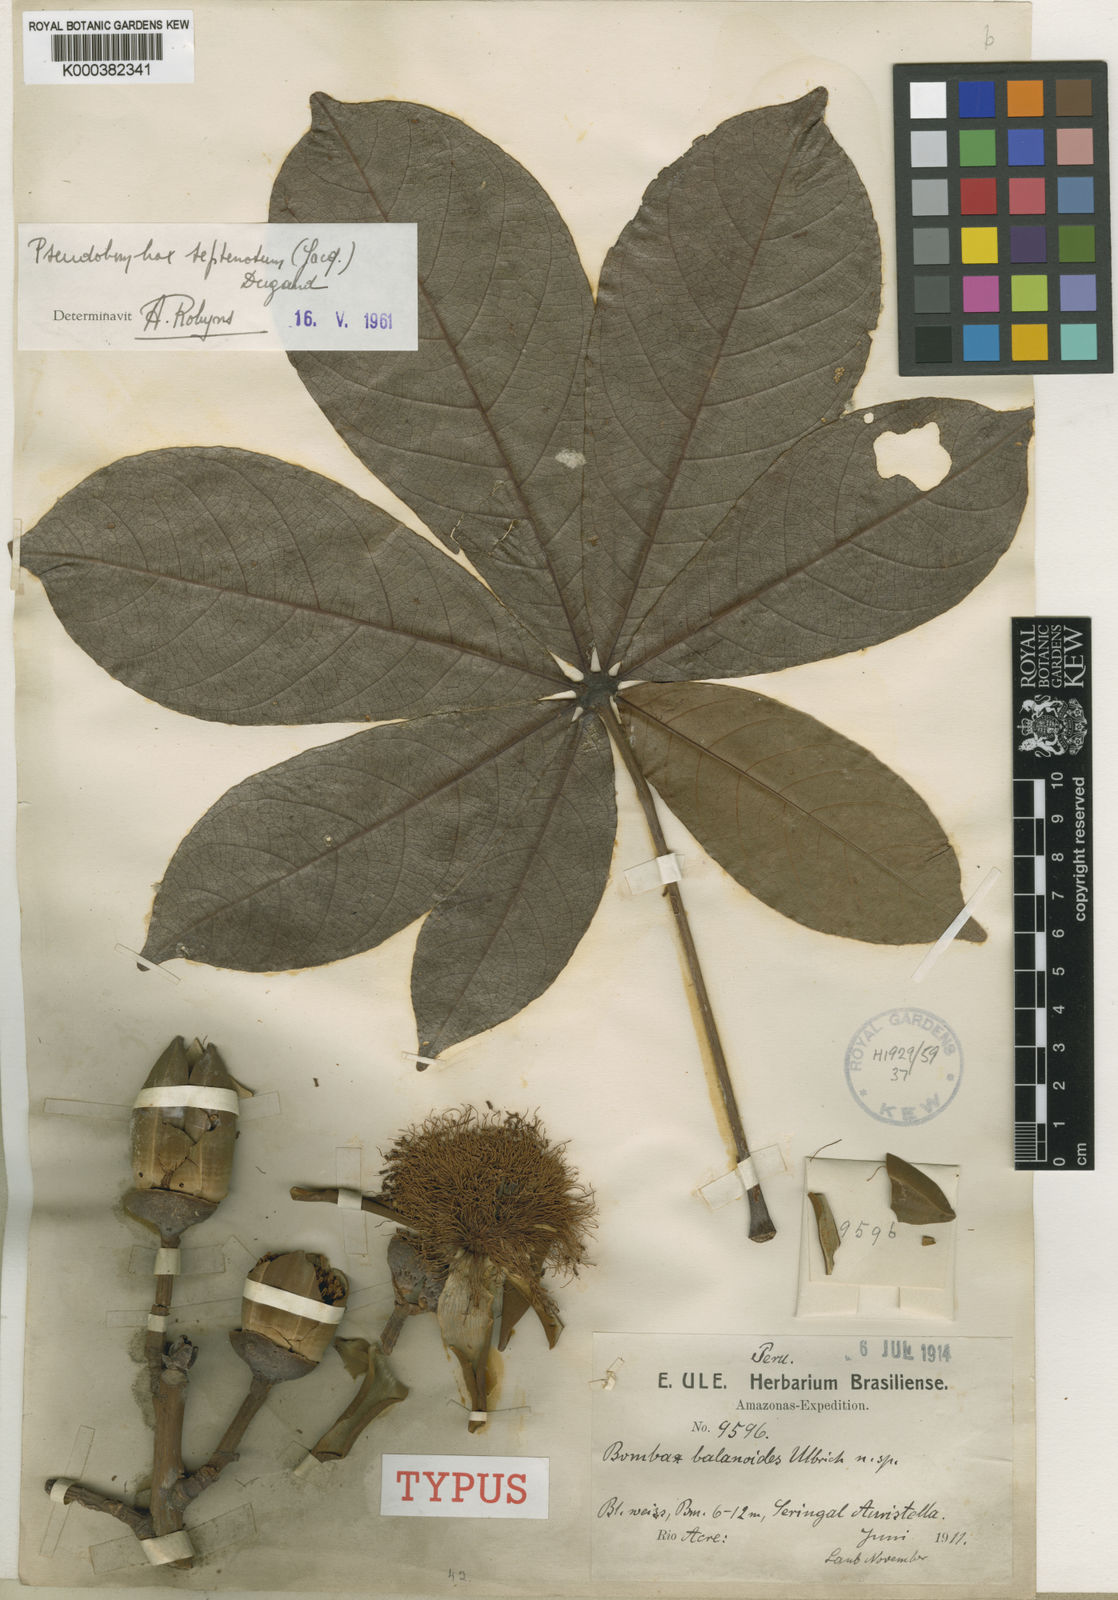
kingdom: Plantae
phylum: Tracheophyta
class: Magnoliopsida
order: Malvales
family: Malvaceae
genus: Pseudobombax
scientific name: Pseudobombax septenatum
